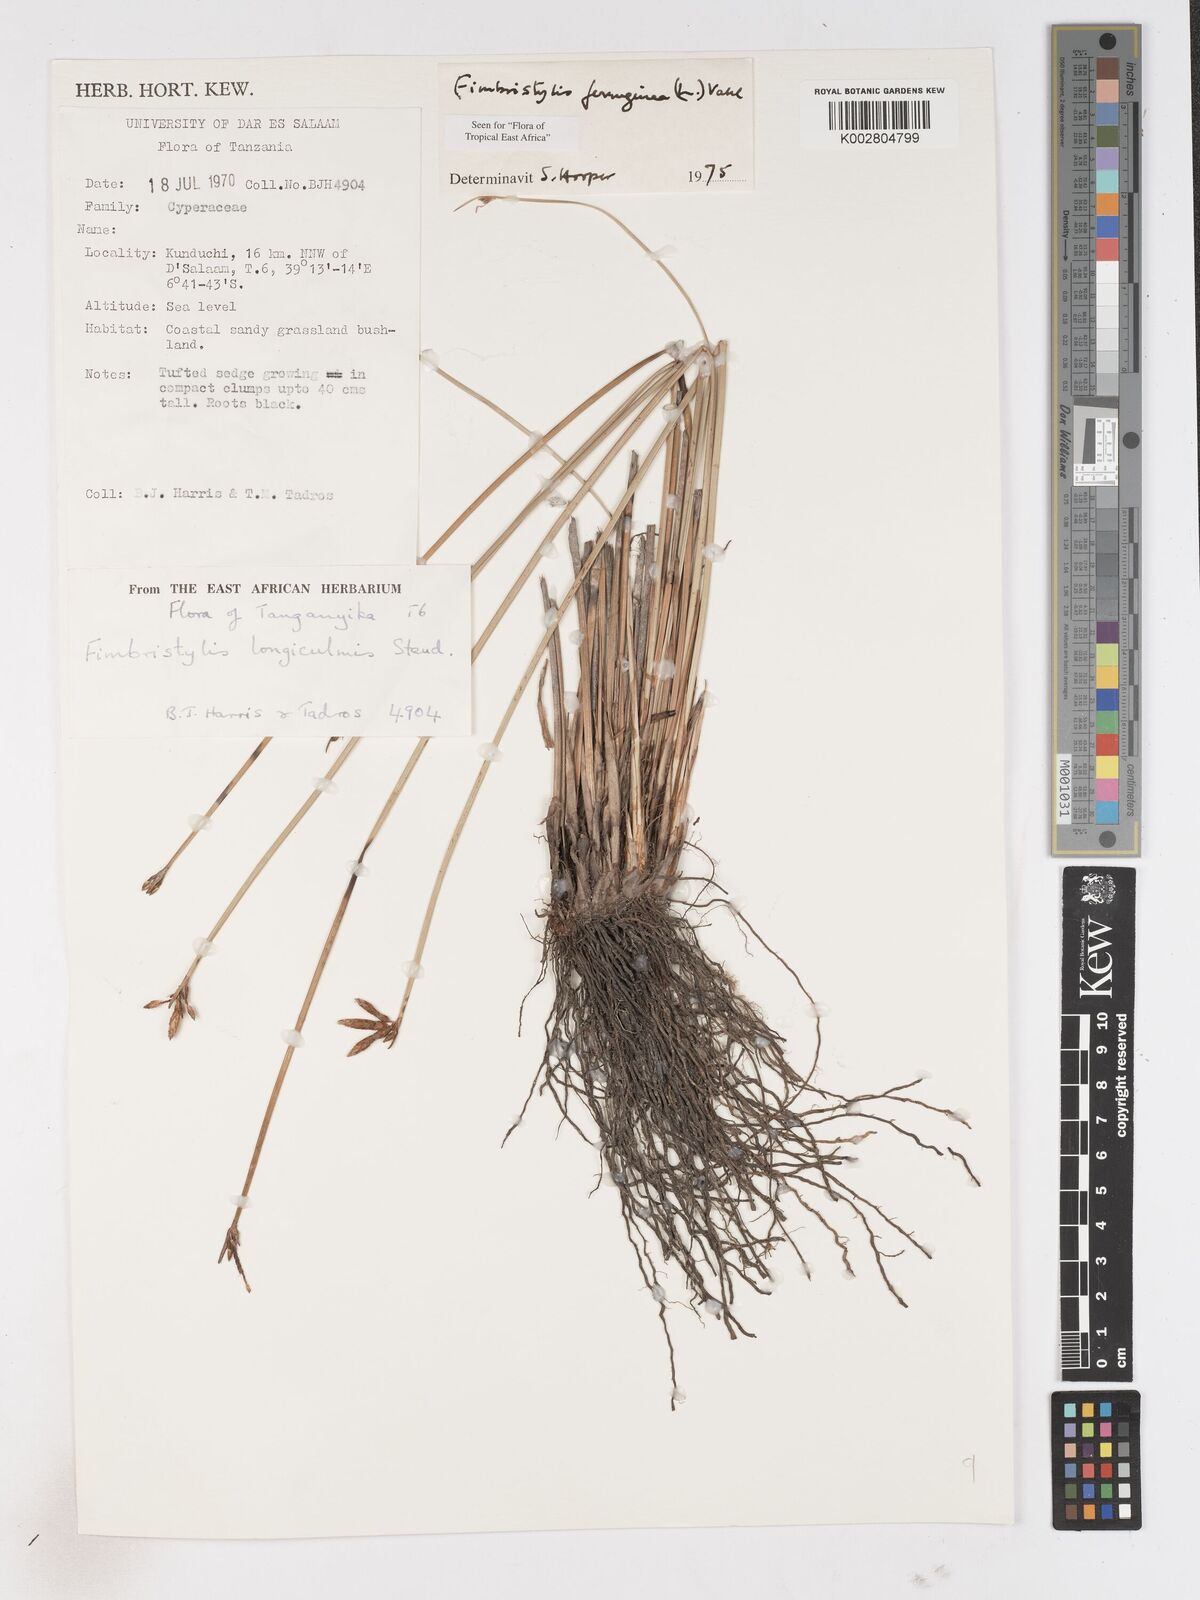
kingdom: Plantae
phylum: Tracheophyta
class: Liliopsida
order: Poales
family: Cyperaceae
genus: Fimbristylis
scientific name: Fimbristylis ferruginea
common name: West indian fimbry
